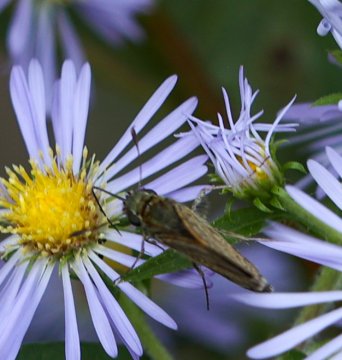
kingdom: Animalia
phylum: Arthropoda
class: Insecta
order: Lepidoptera
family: Hesperiidae
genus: Polites
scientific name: Polites themistocles
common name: Tawny-edged Skipper
